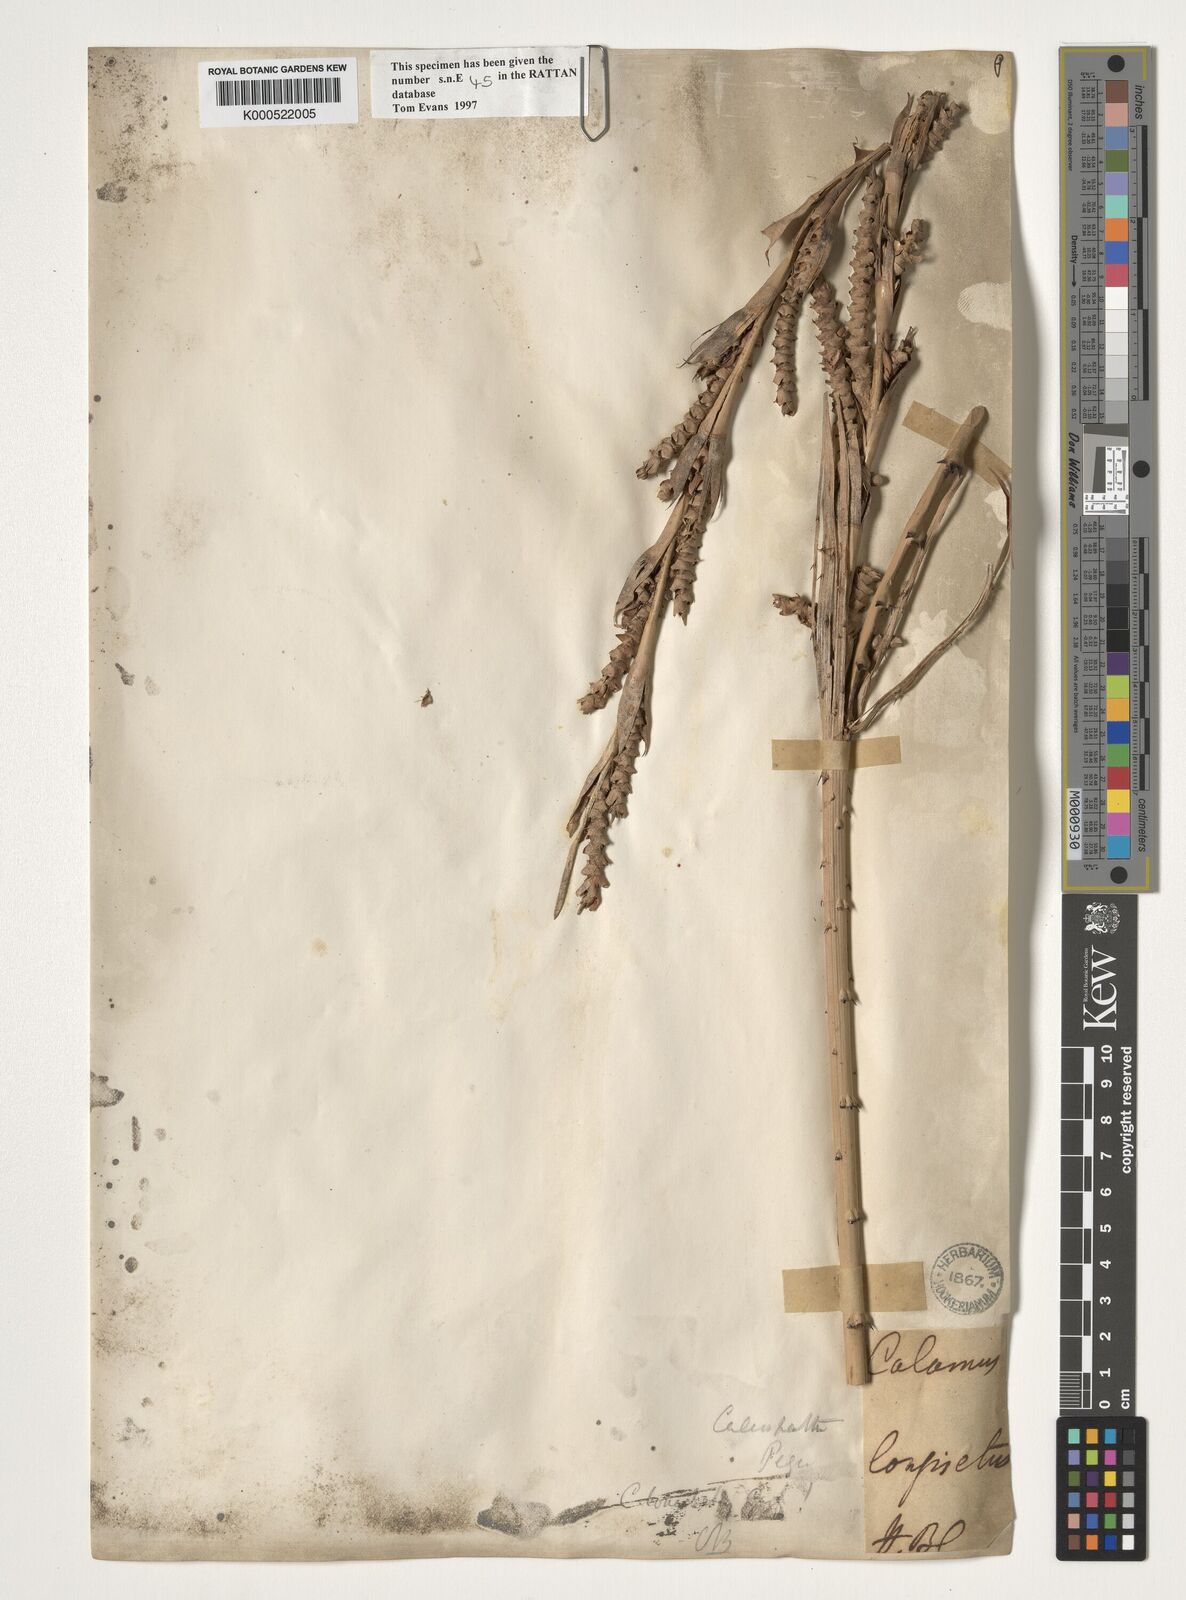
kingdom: Plantae
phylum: Tracheophyta
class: Liliopsida
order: Arecales
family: Arecaceae
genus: Calamus
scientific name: Calamus longisetus
